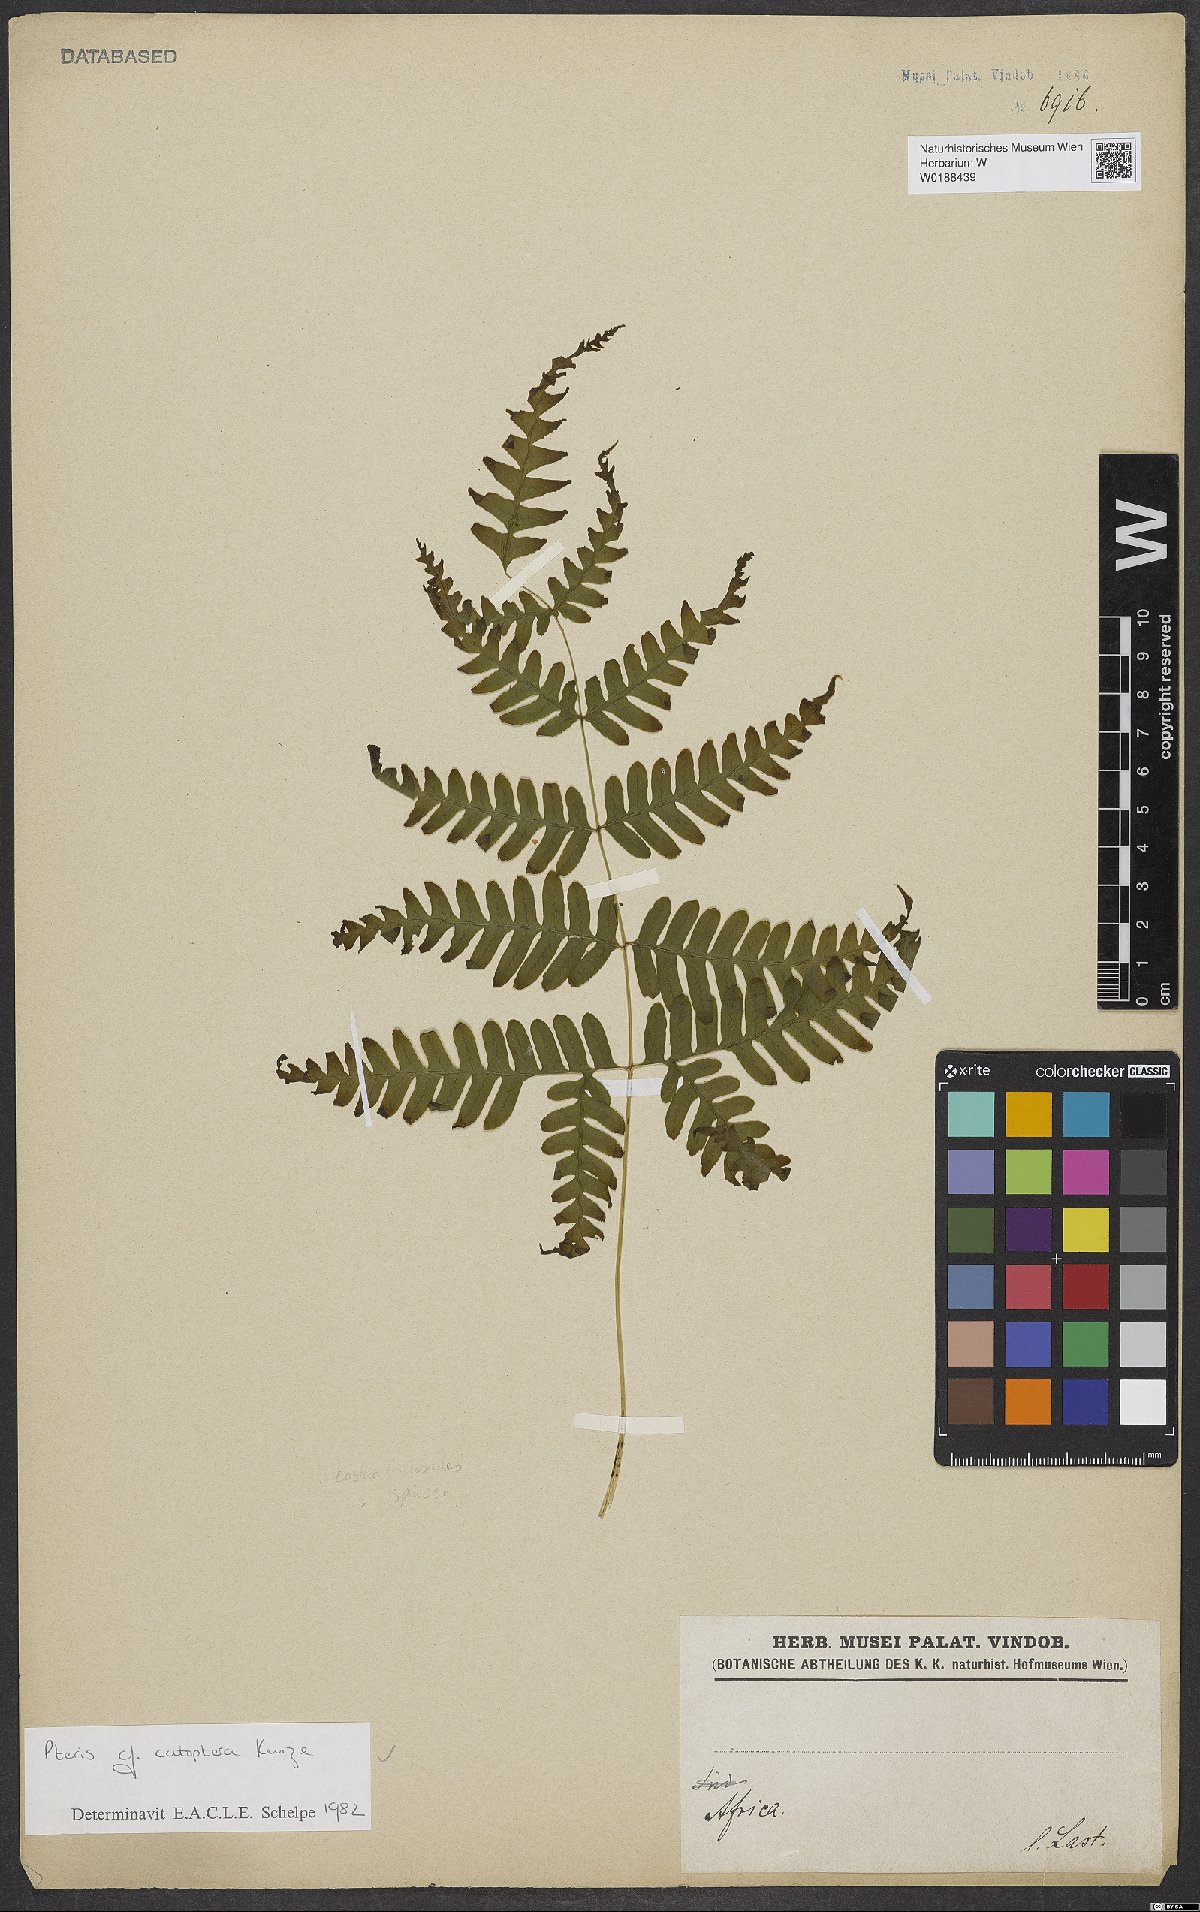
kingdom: Plantae
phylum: Tracheophyta
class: Polypodiopsida
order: Polypodiales
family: Pteridaceae
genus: Pteris
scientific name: Pteris catoptera
